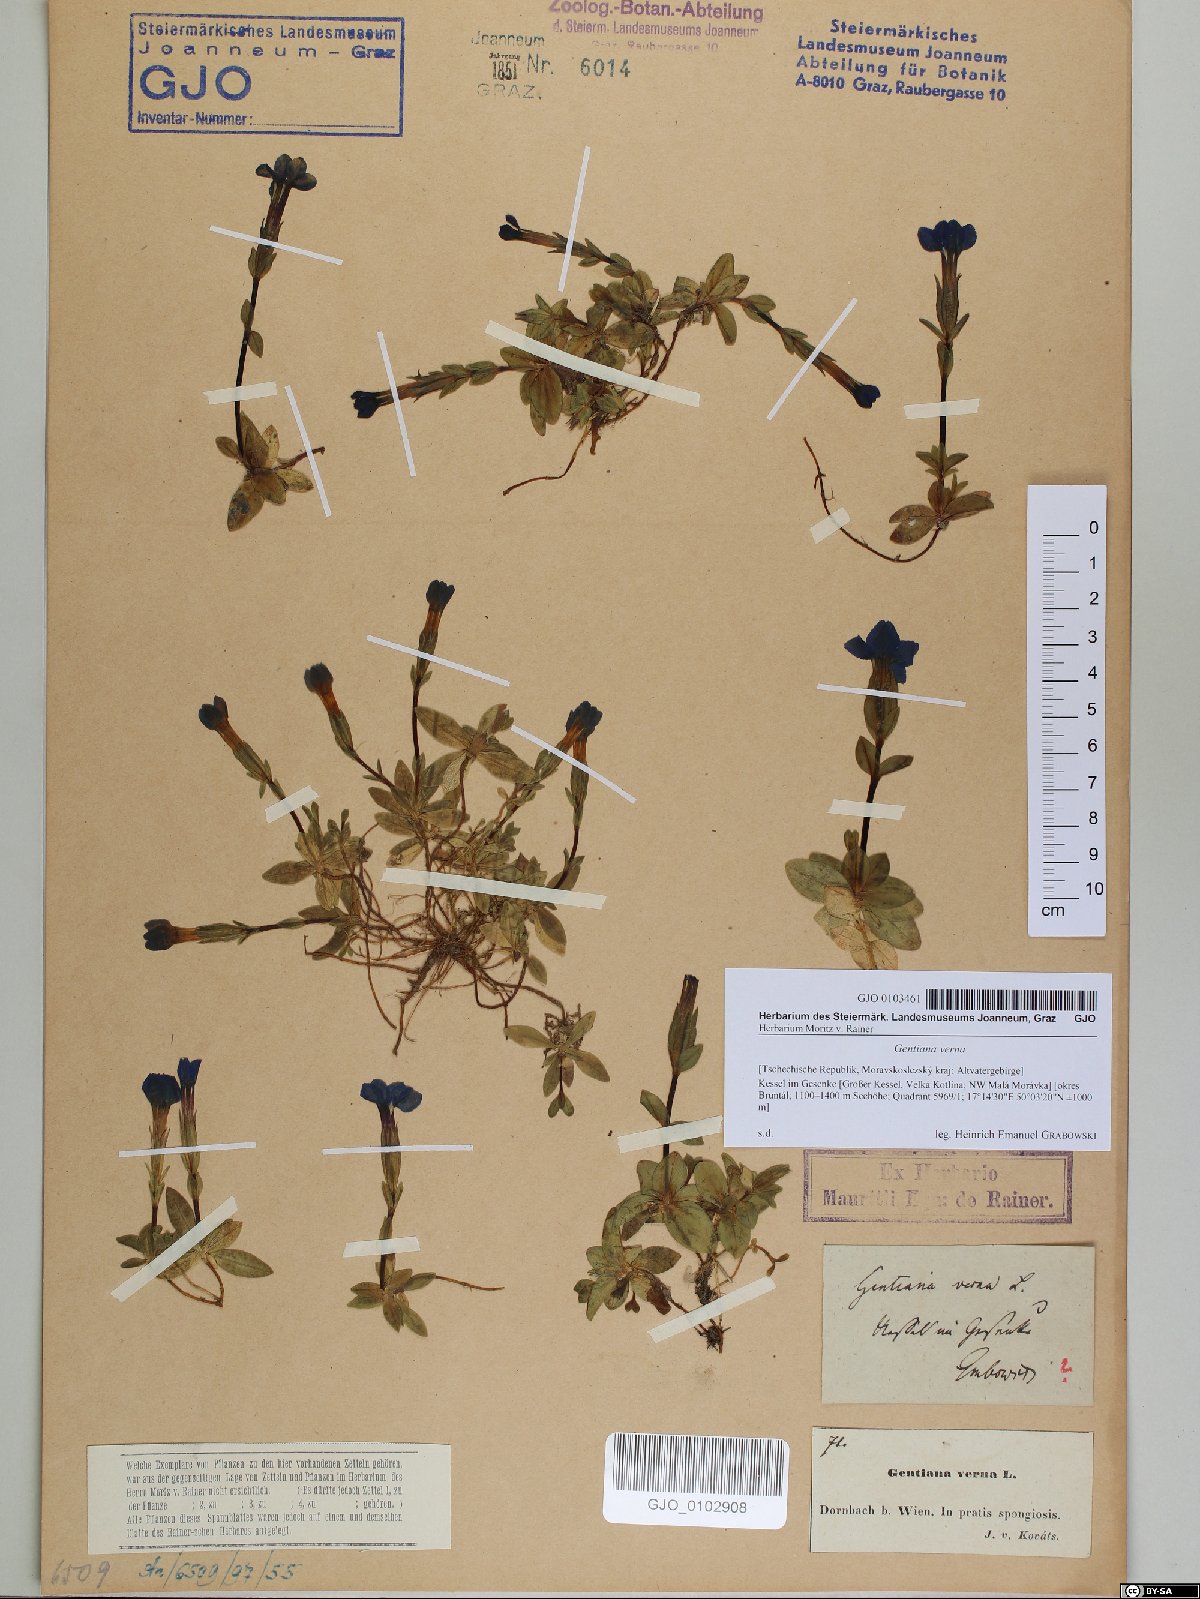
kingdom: Plantae
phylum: Tracheophyta
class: Magnoliopsida
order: Gentianales
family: Gentianaceae
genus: Gentiana
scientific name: Gentiana verna
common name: Spring gentian
